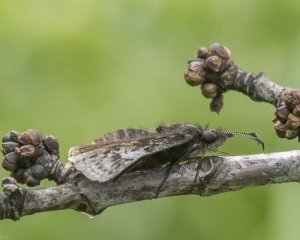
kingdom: Animalia
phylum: Arthropoda
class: Insecta
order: Lepidoptera
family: Hesperiidae
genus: Erynnis
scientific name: Erynnis icelus
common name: Dreamy Duskywing
